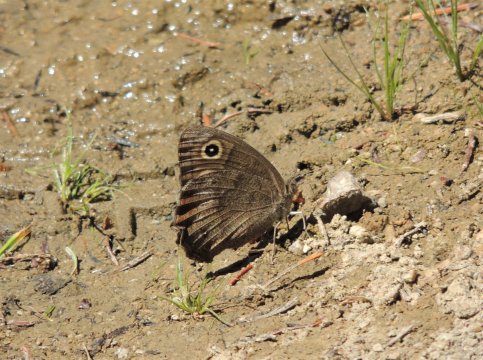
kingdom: Animalia
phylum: Arthropoda
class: Insecta
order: Lepidoptera
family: Nymphalidae
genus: Cercyonis
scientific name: Cercyonis pegala
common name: Common Wood-Nymph
